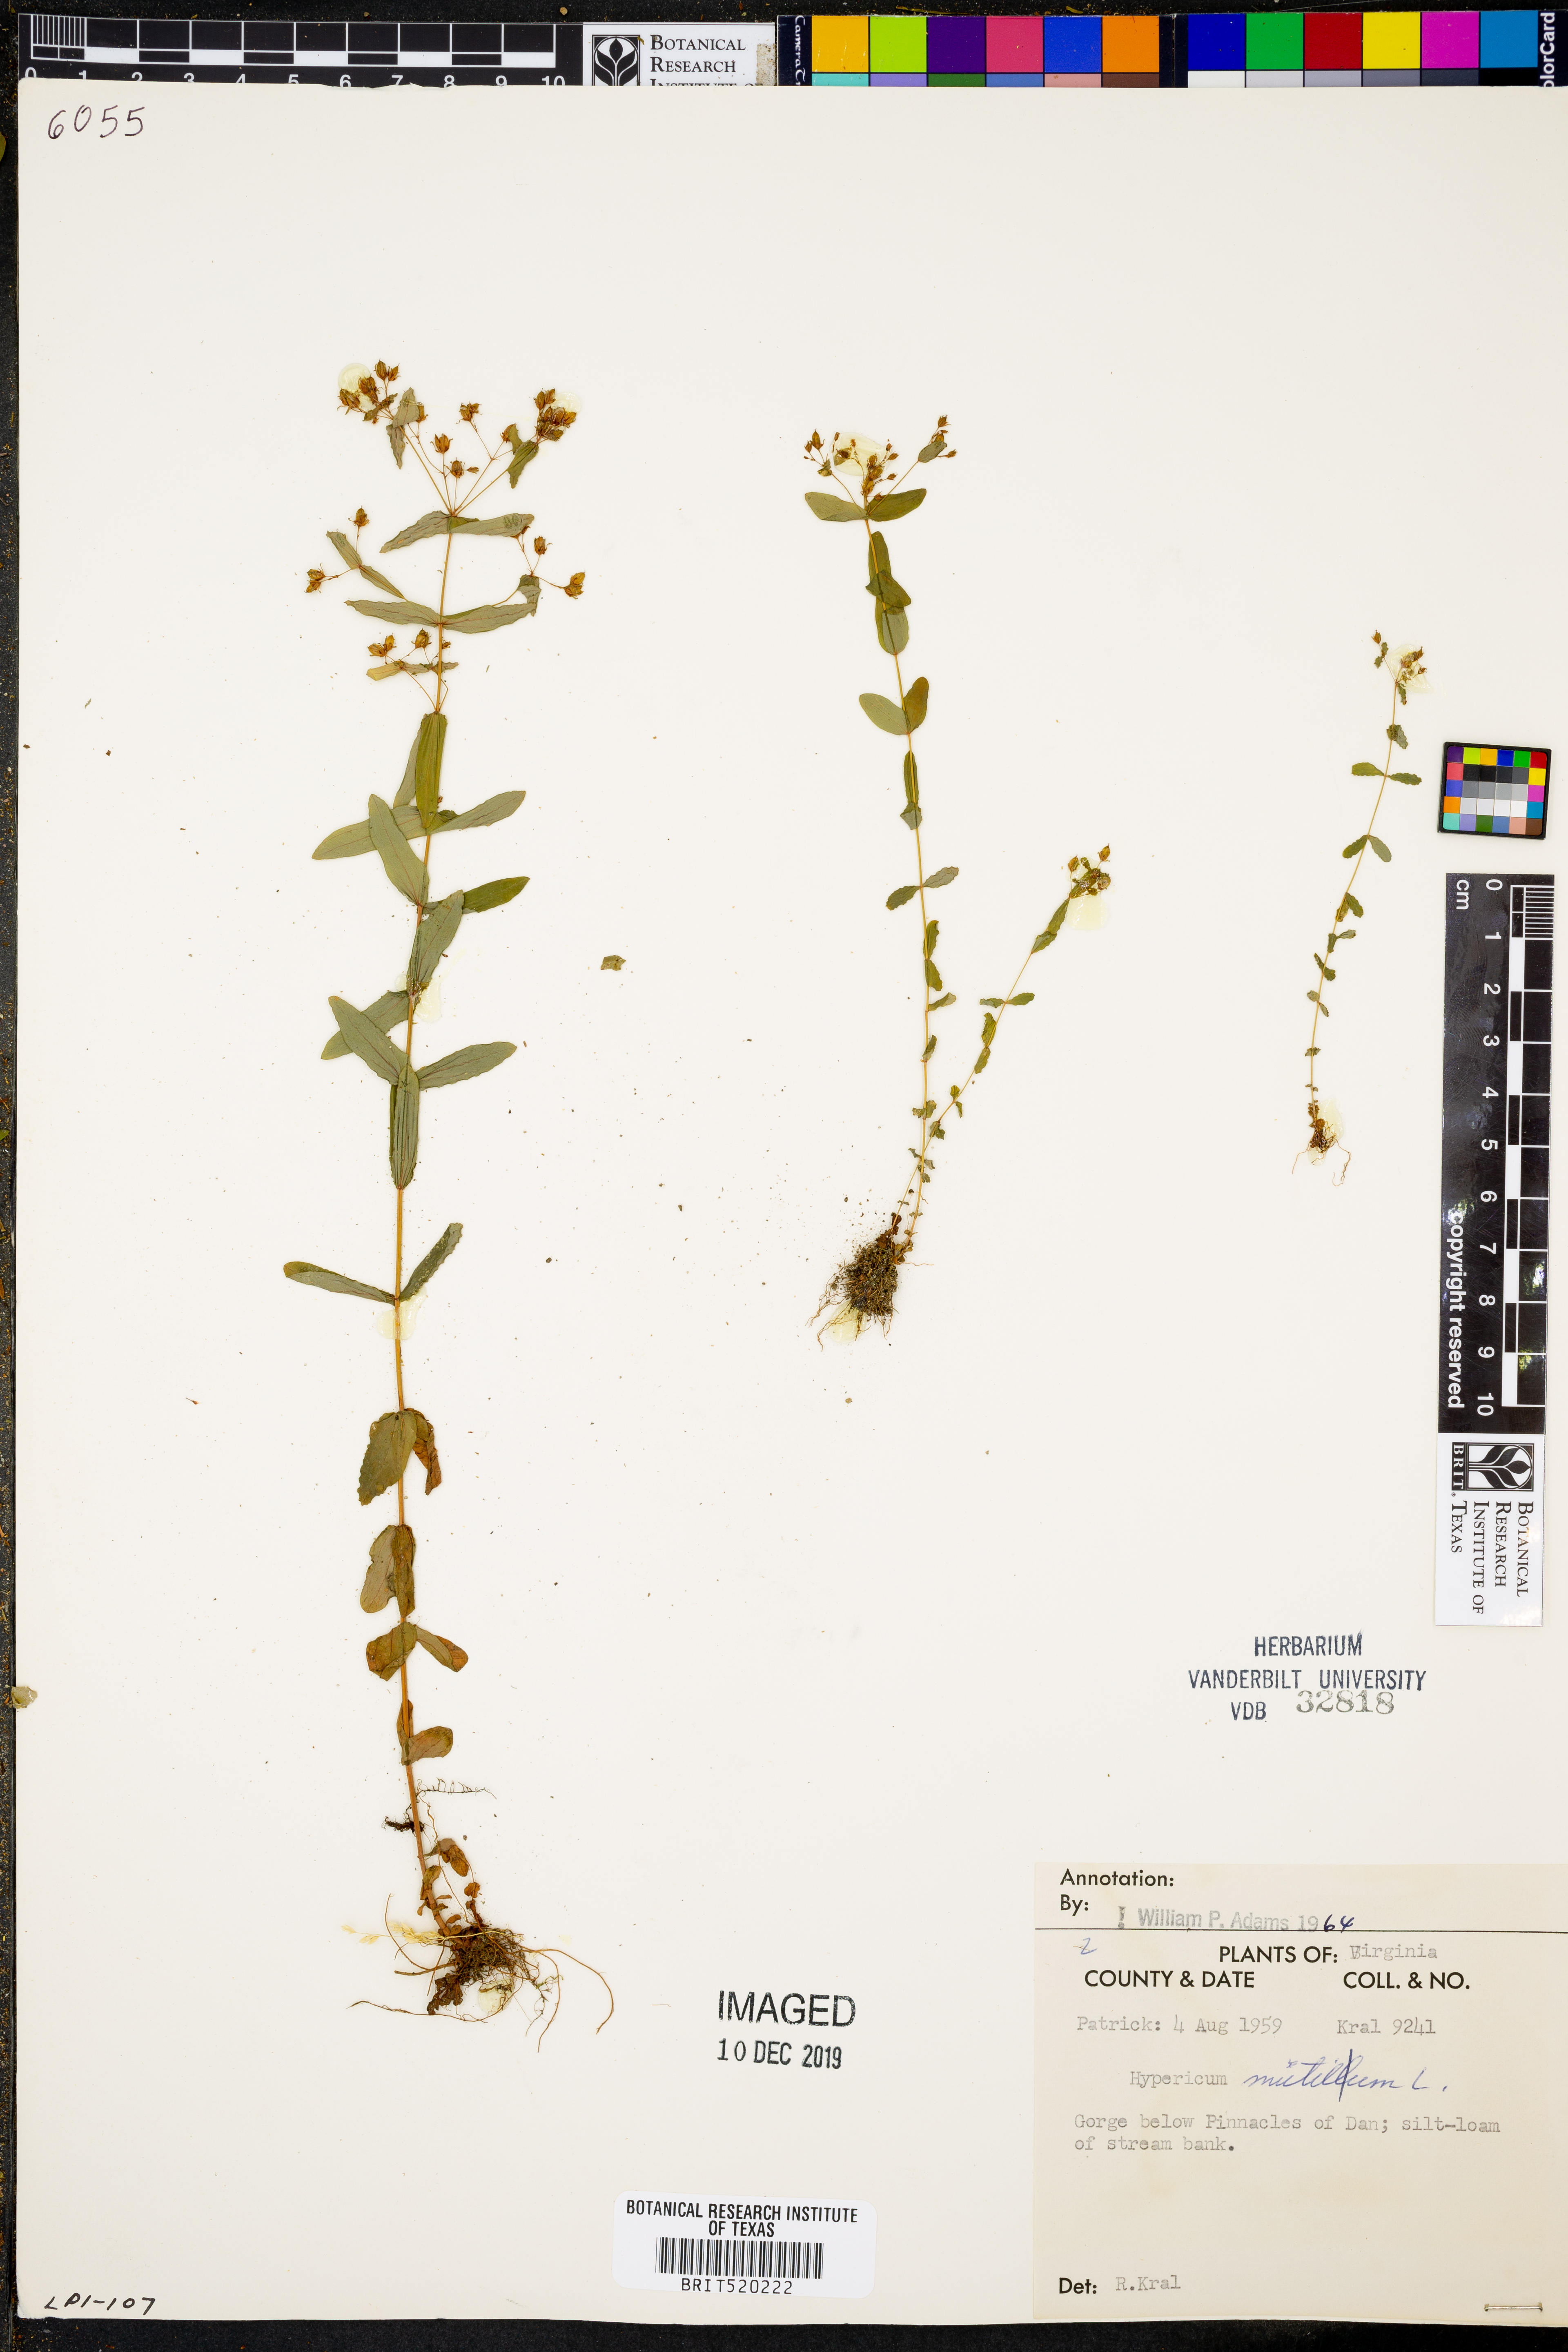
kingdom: Plantae
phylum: Tracheophyta
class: Magnoliopsida
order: Malpighiales
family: Hypericaceae
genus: Hypericum
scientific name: Hypericum mutilum
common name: Dwarf st. john's-wort
